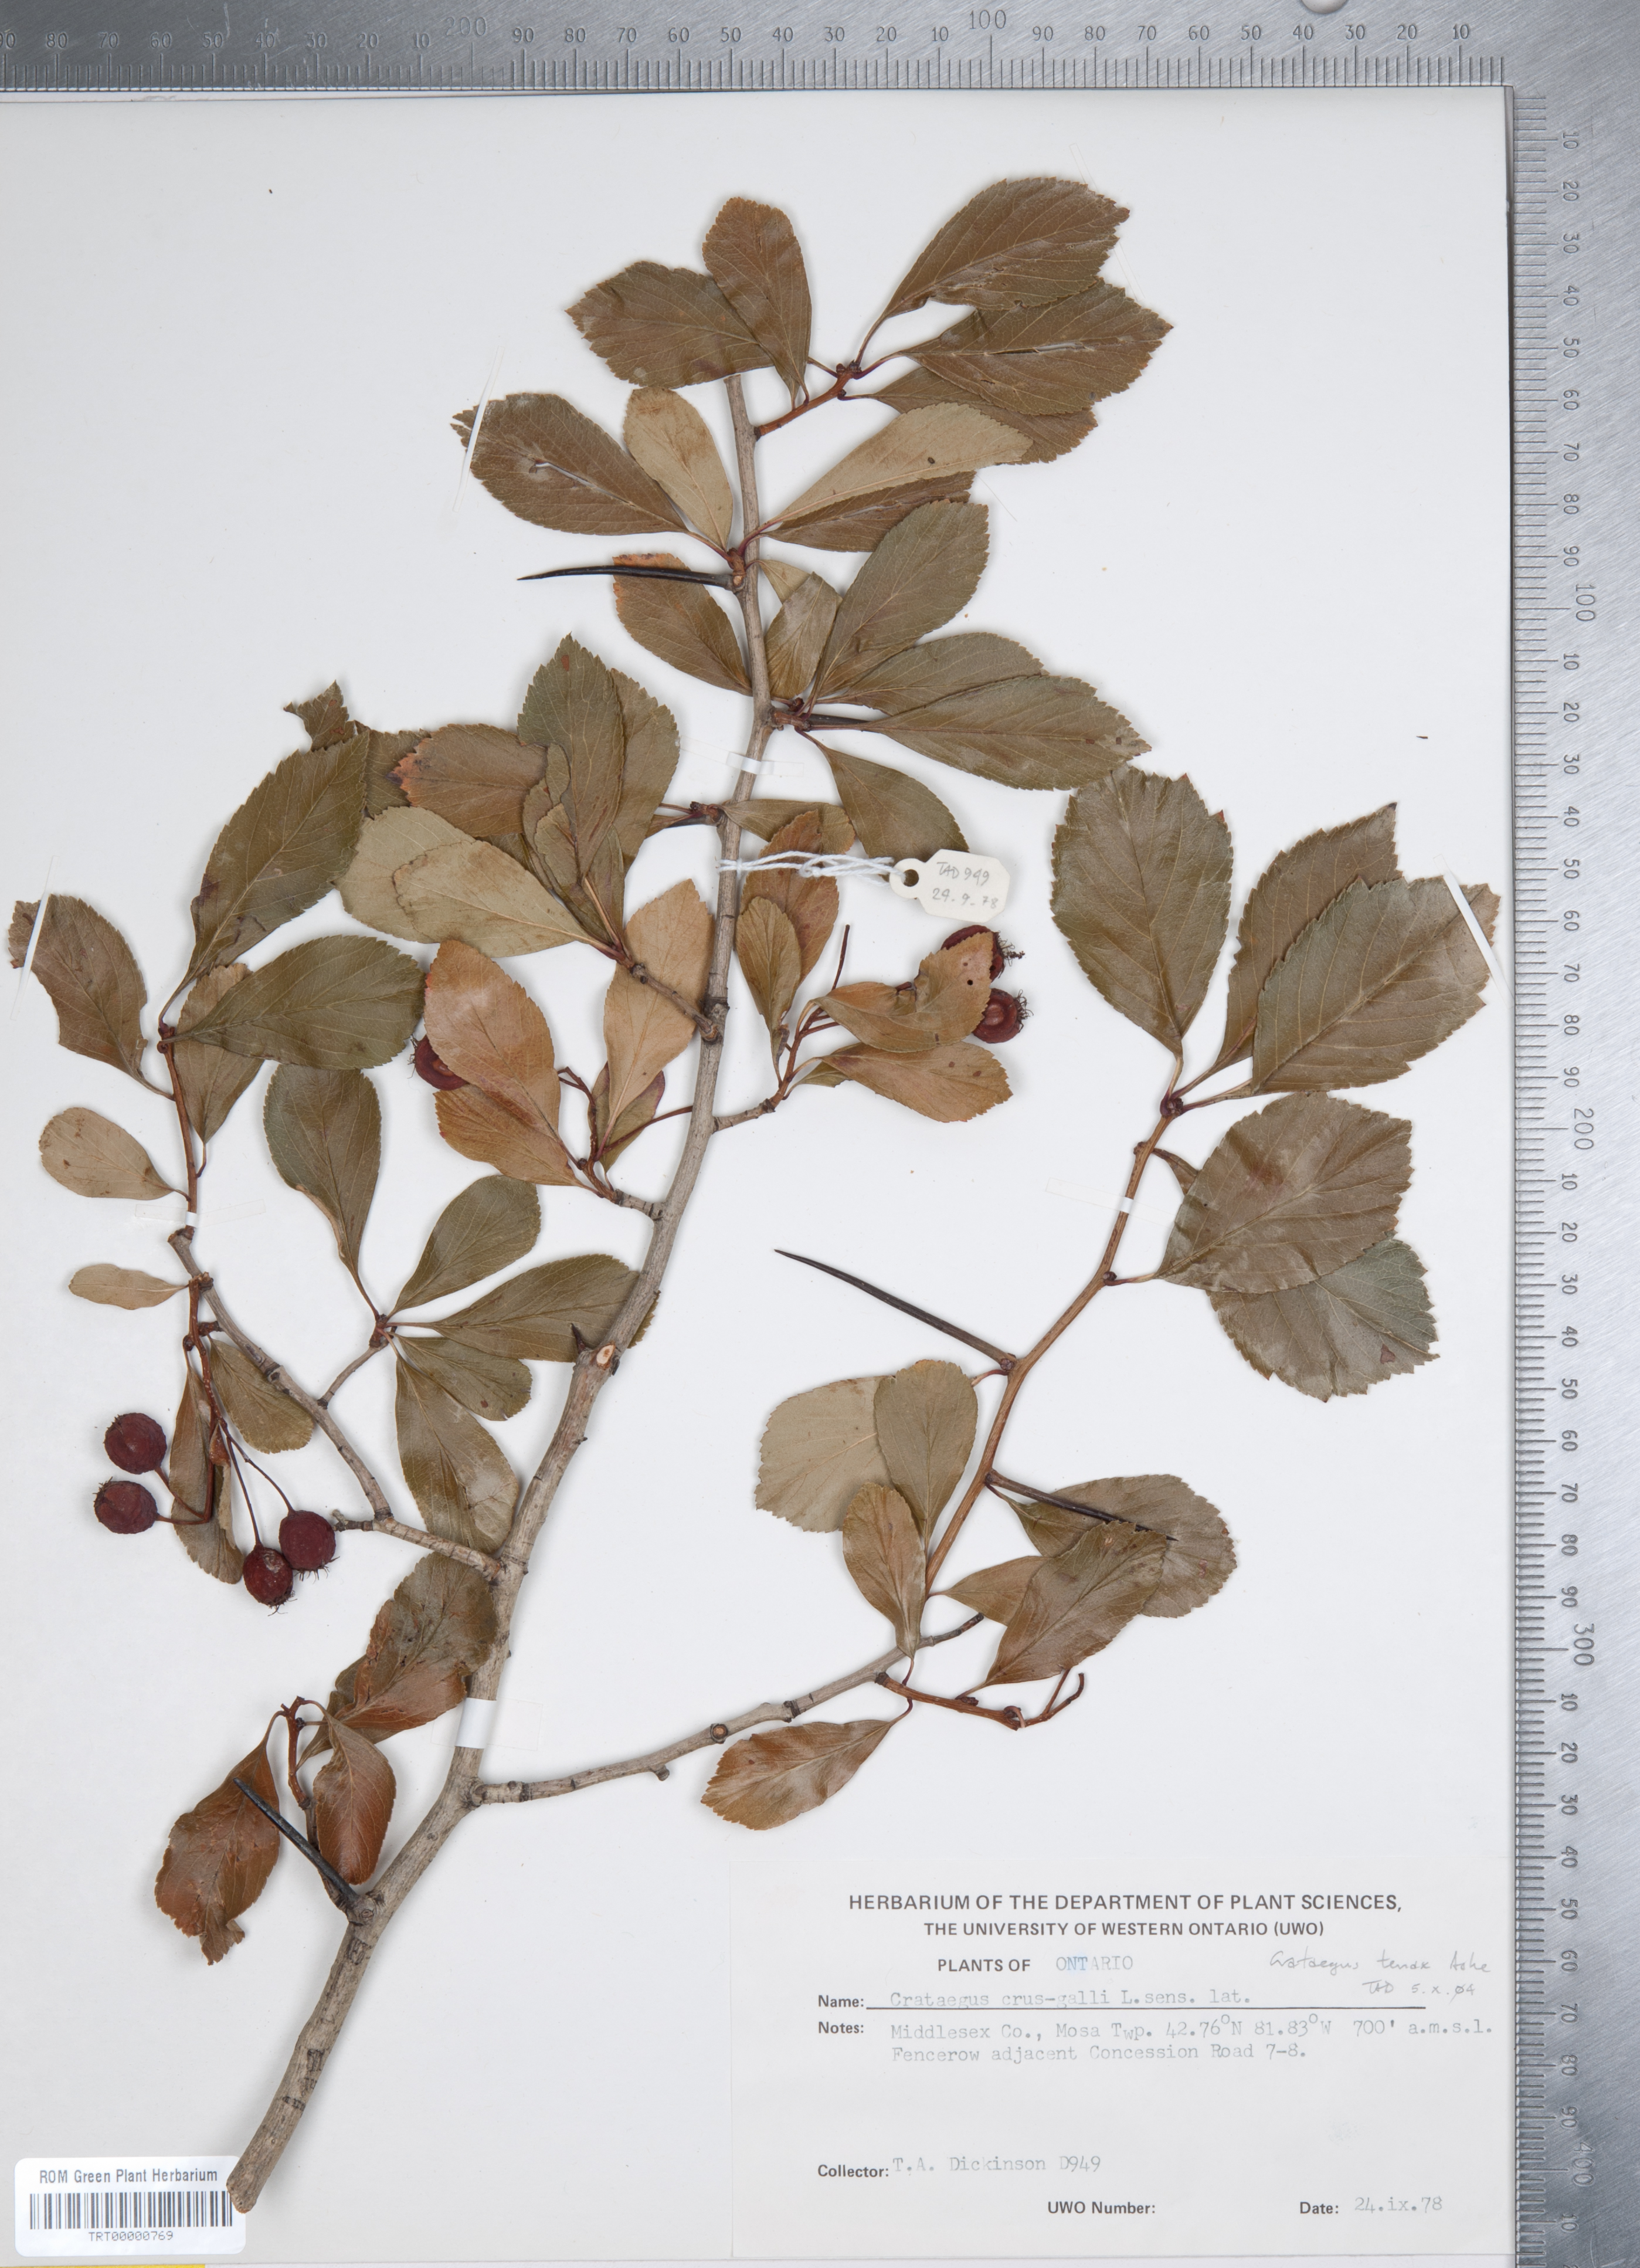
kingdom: Plantae
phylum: Tracheophyta
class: Magnoliopsida
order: Rosales
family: Rosaceae
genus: Crataegus
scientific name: Crataegus crus-galli
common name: Cockspurthorn
